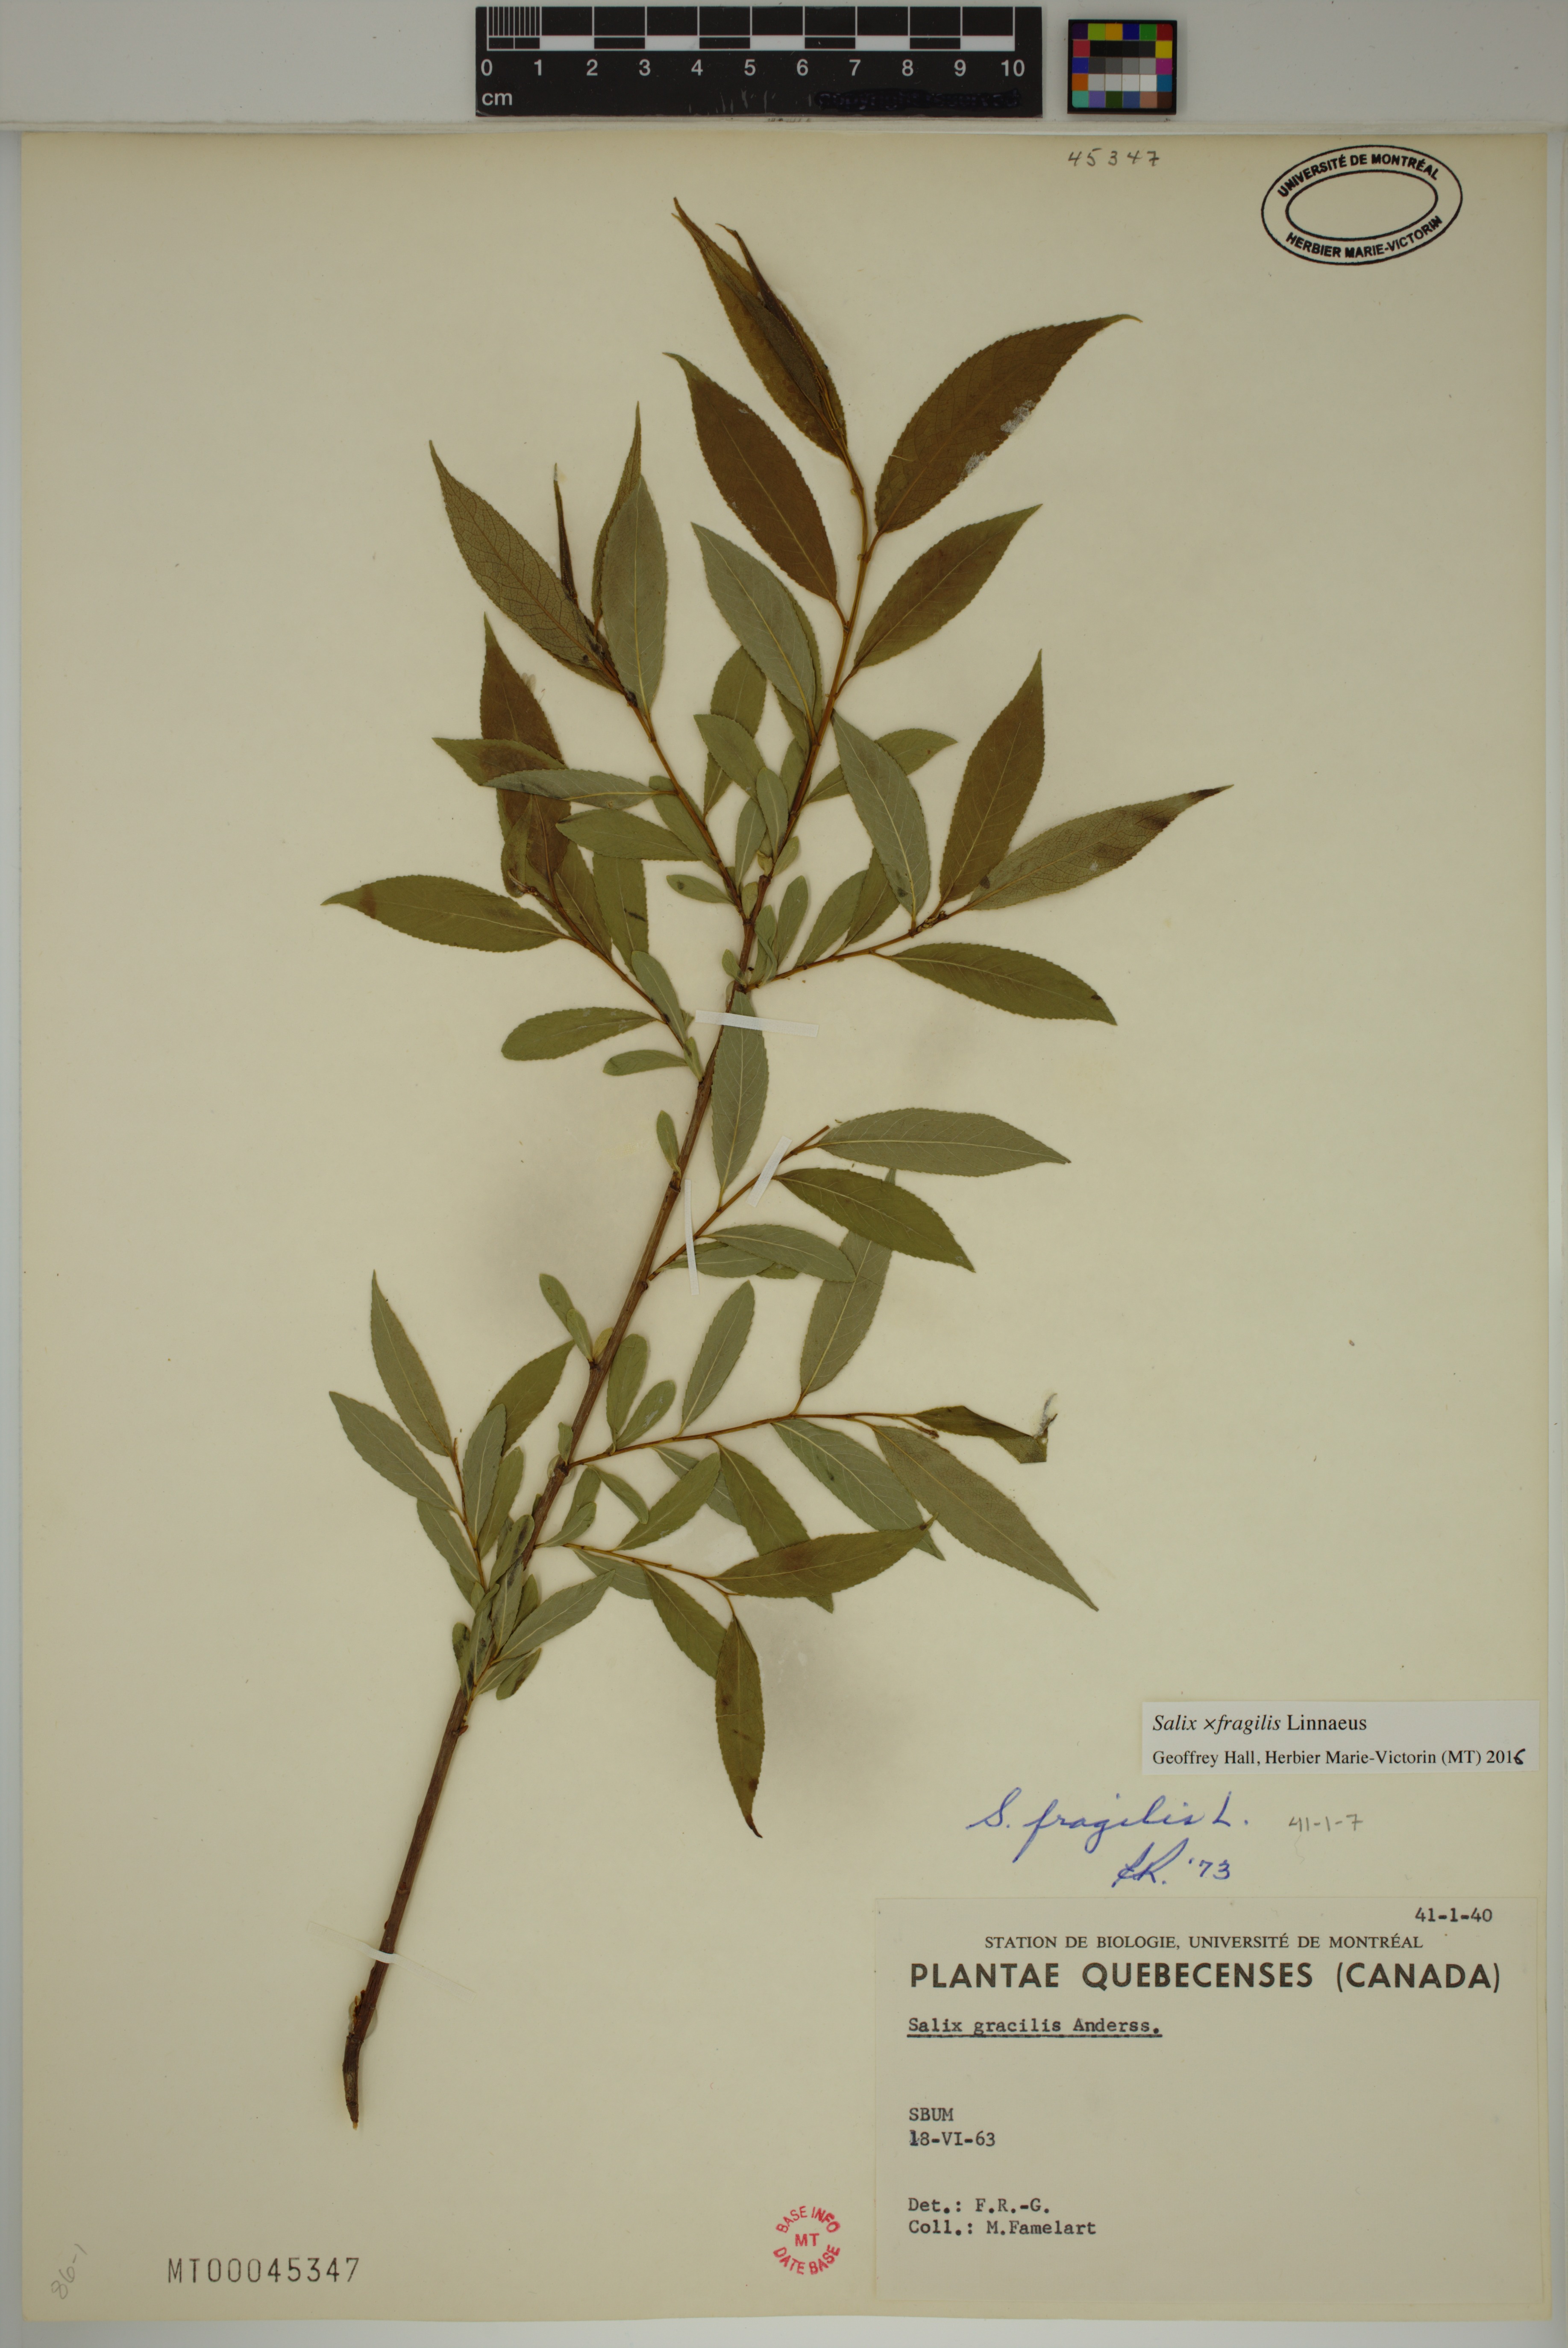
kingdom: Plantae
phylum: Tracheophyta
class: Magnoliopsida
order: Malpighiales
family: Salicaceae
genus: Salix
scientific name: Salix fragilis
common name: Crack willow
